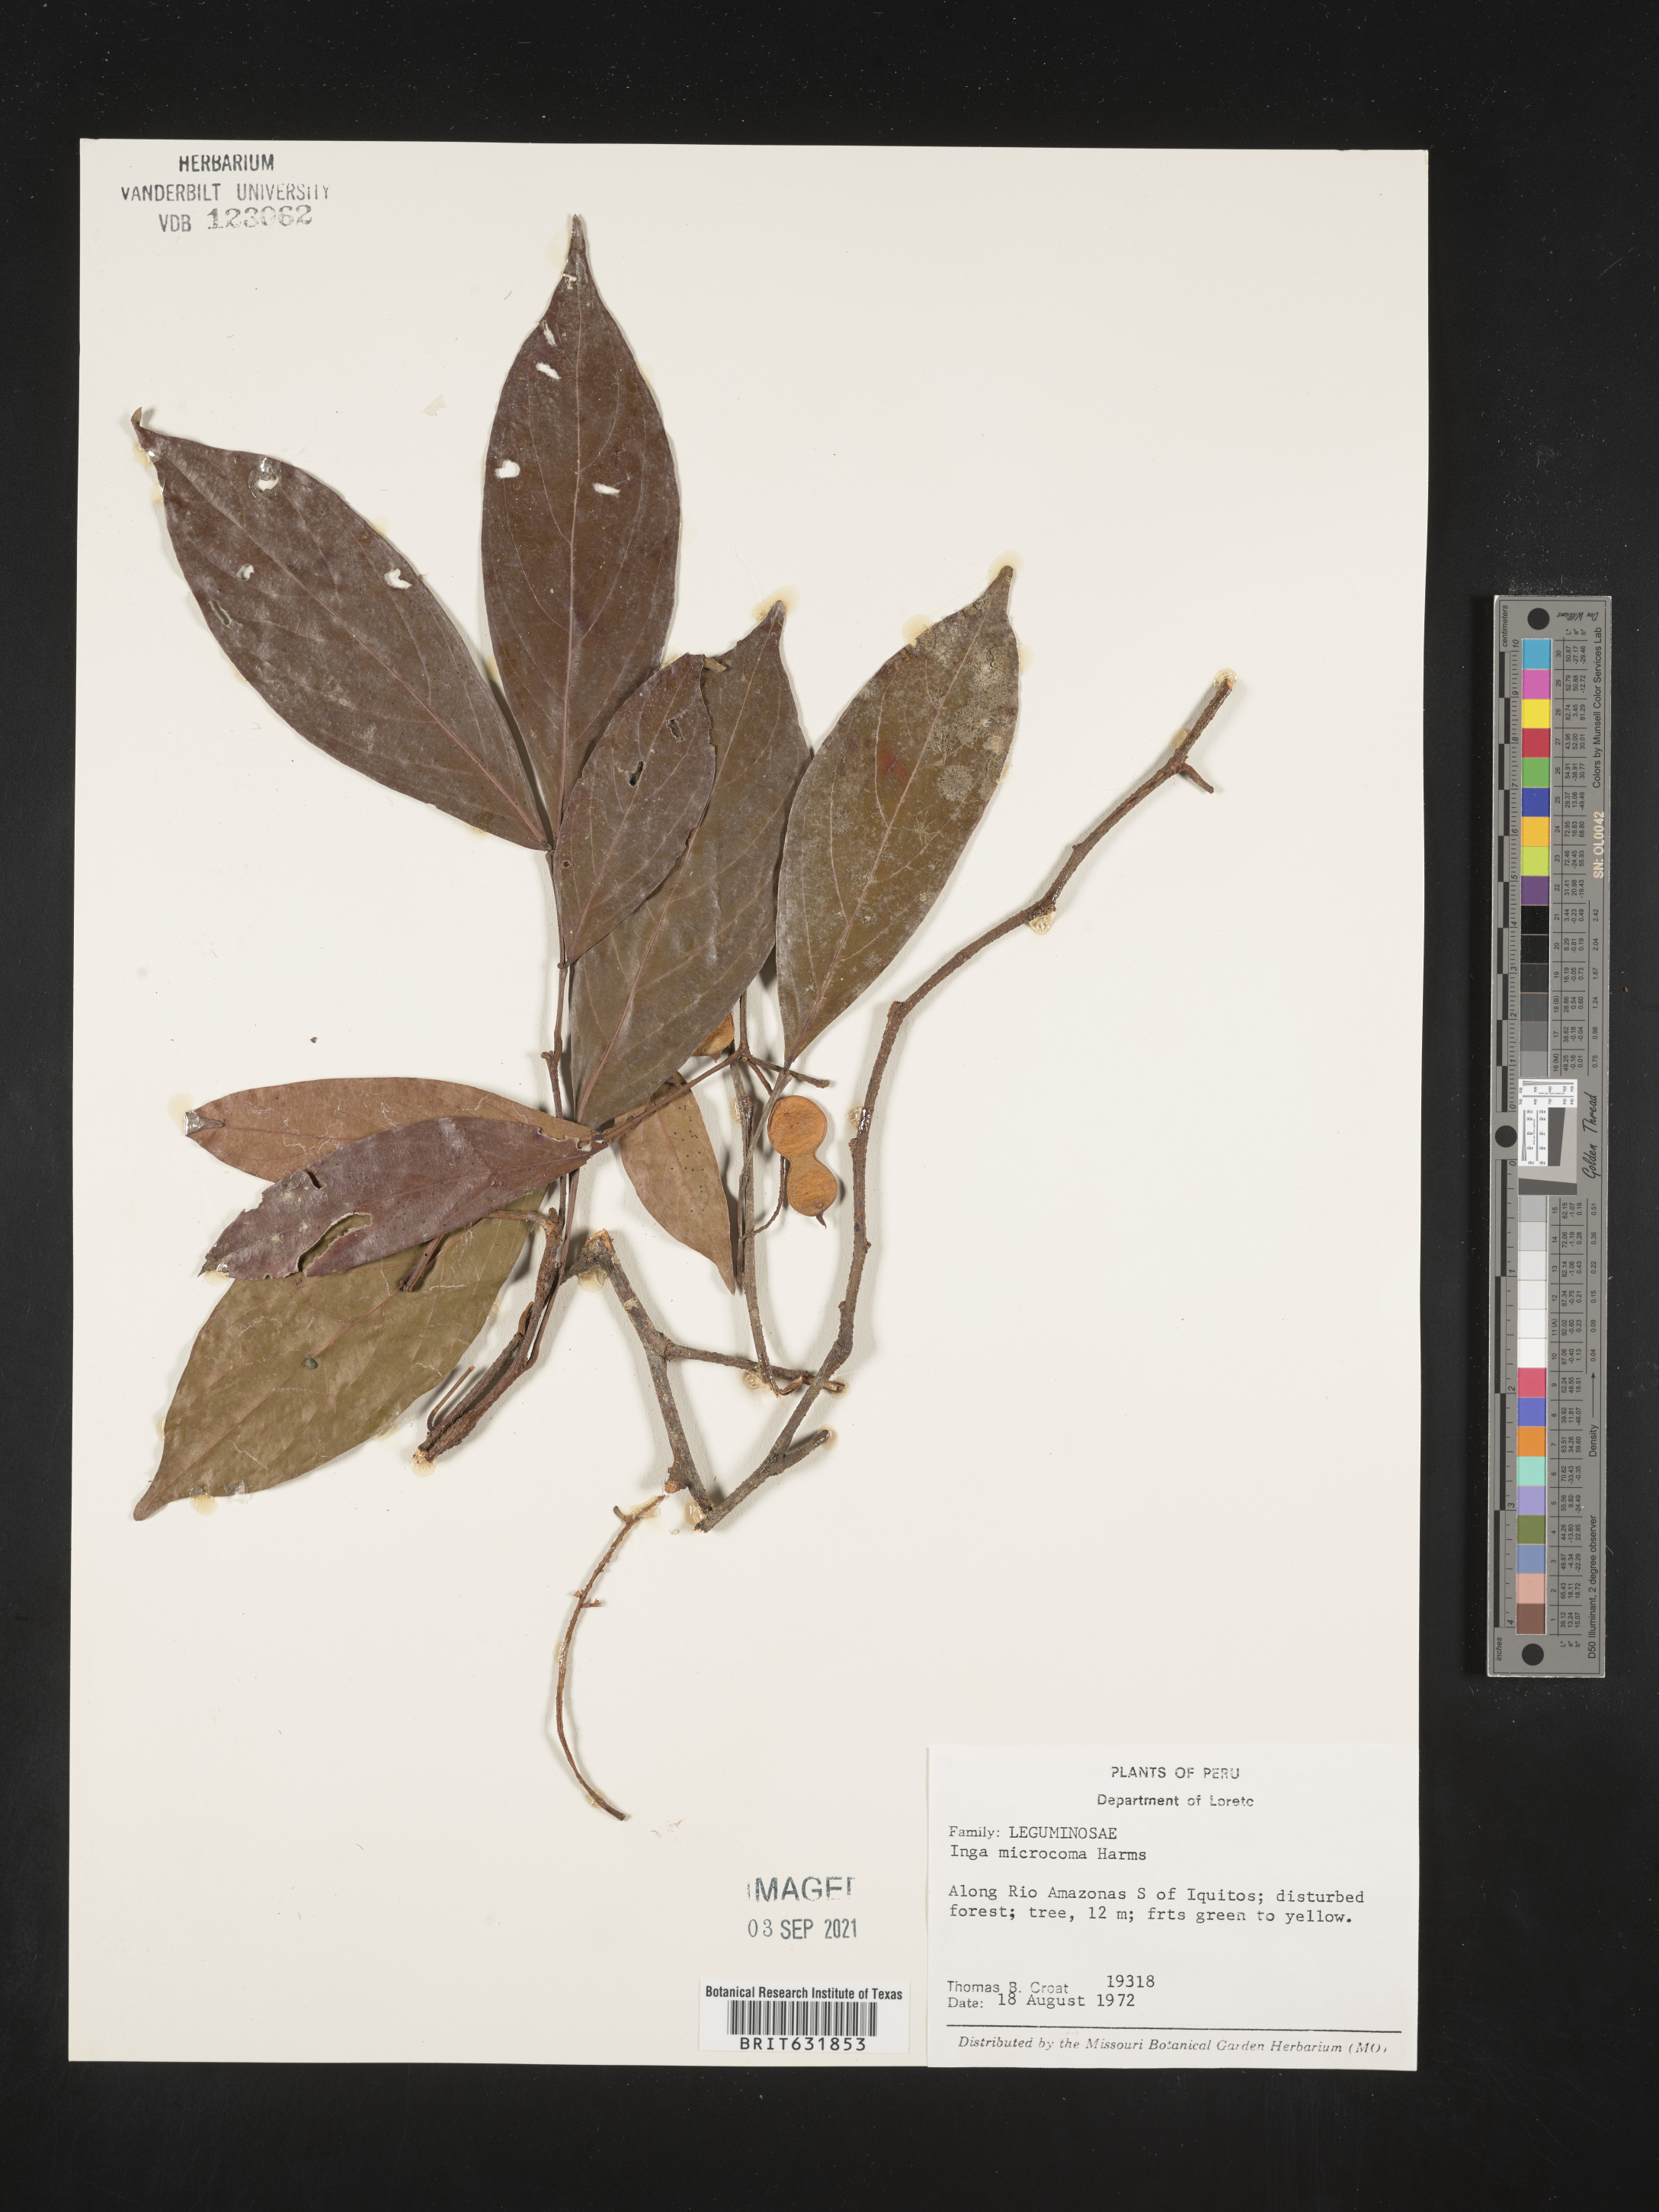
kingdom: Plantae
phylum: Tracheophyta
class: Magnoliopsida
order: Fabales
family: Fabaceae
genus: Inga
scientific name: Inga
